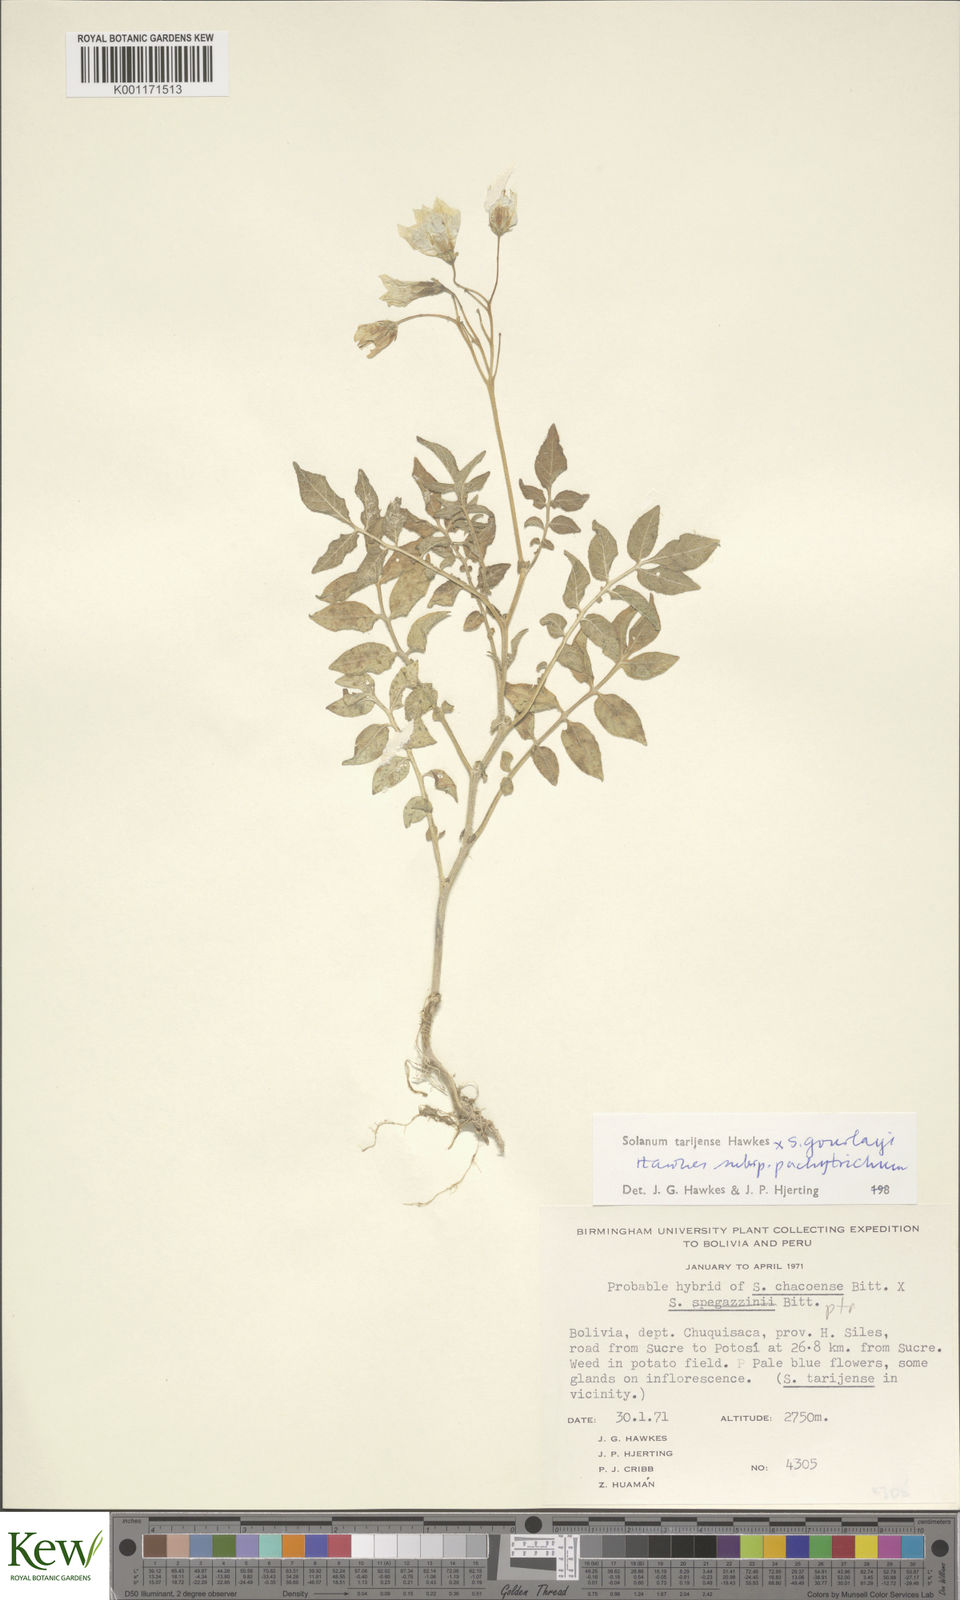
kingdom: Plantae
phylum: Tracheophyta
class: Magnoliopsida
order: Solanales
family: Solanaceae
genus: Solanum
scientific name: Solanum tarijense
